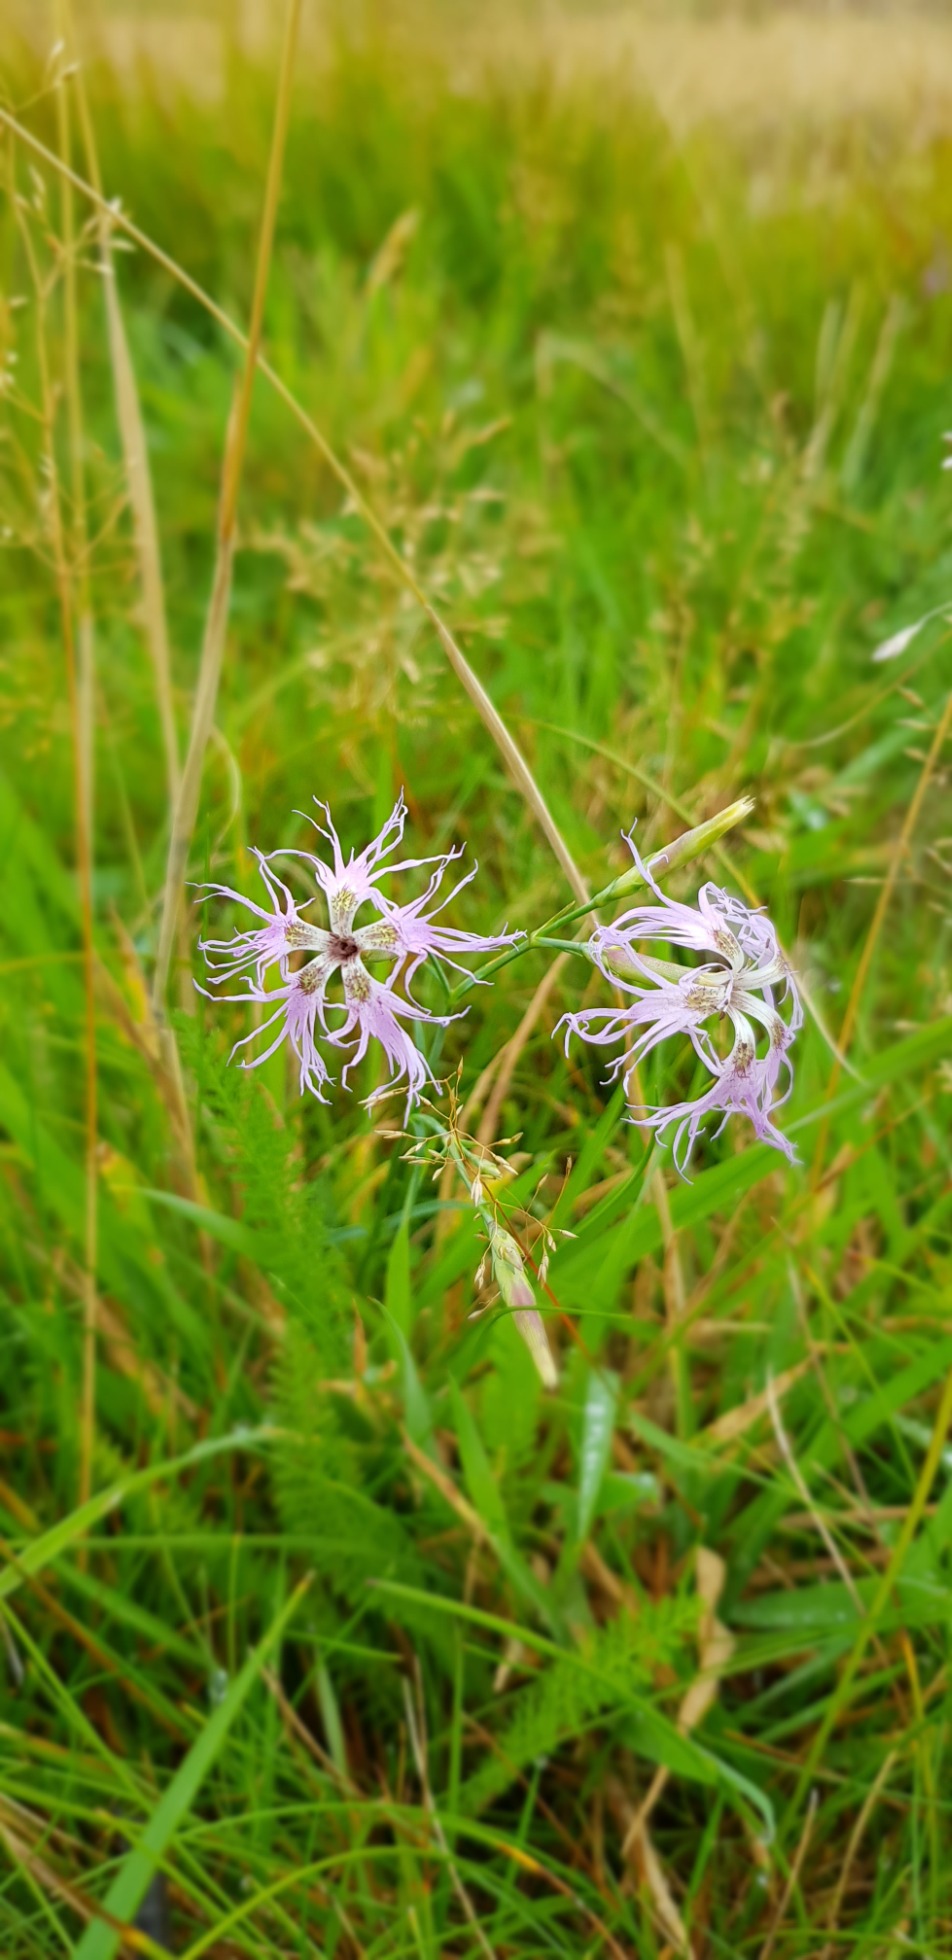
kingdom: Plantae
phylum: Tracheophyta
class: Magnoliopsida
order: Caryophyllales
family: Caryophyllaceae
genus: Dianthus
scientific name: Dianthus superbus
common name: Strand-nellike
